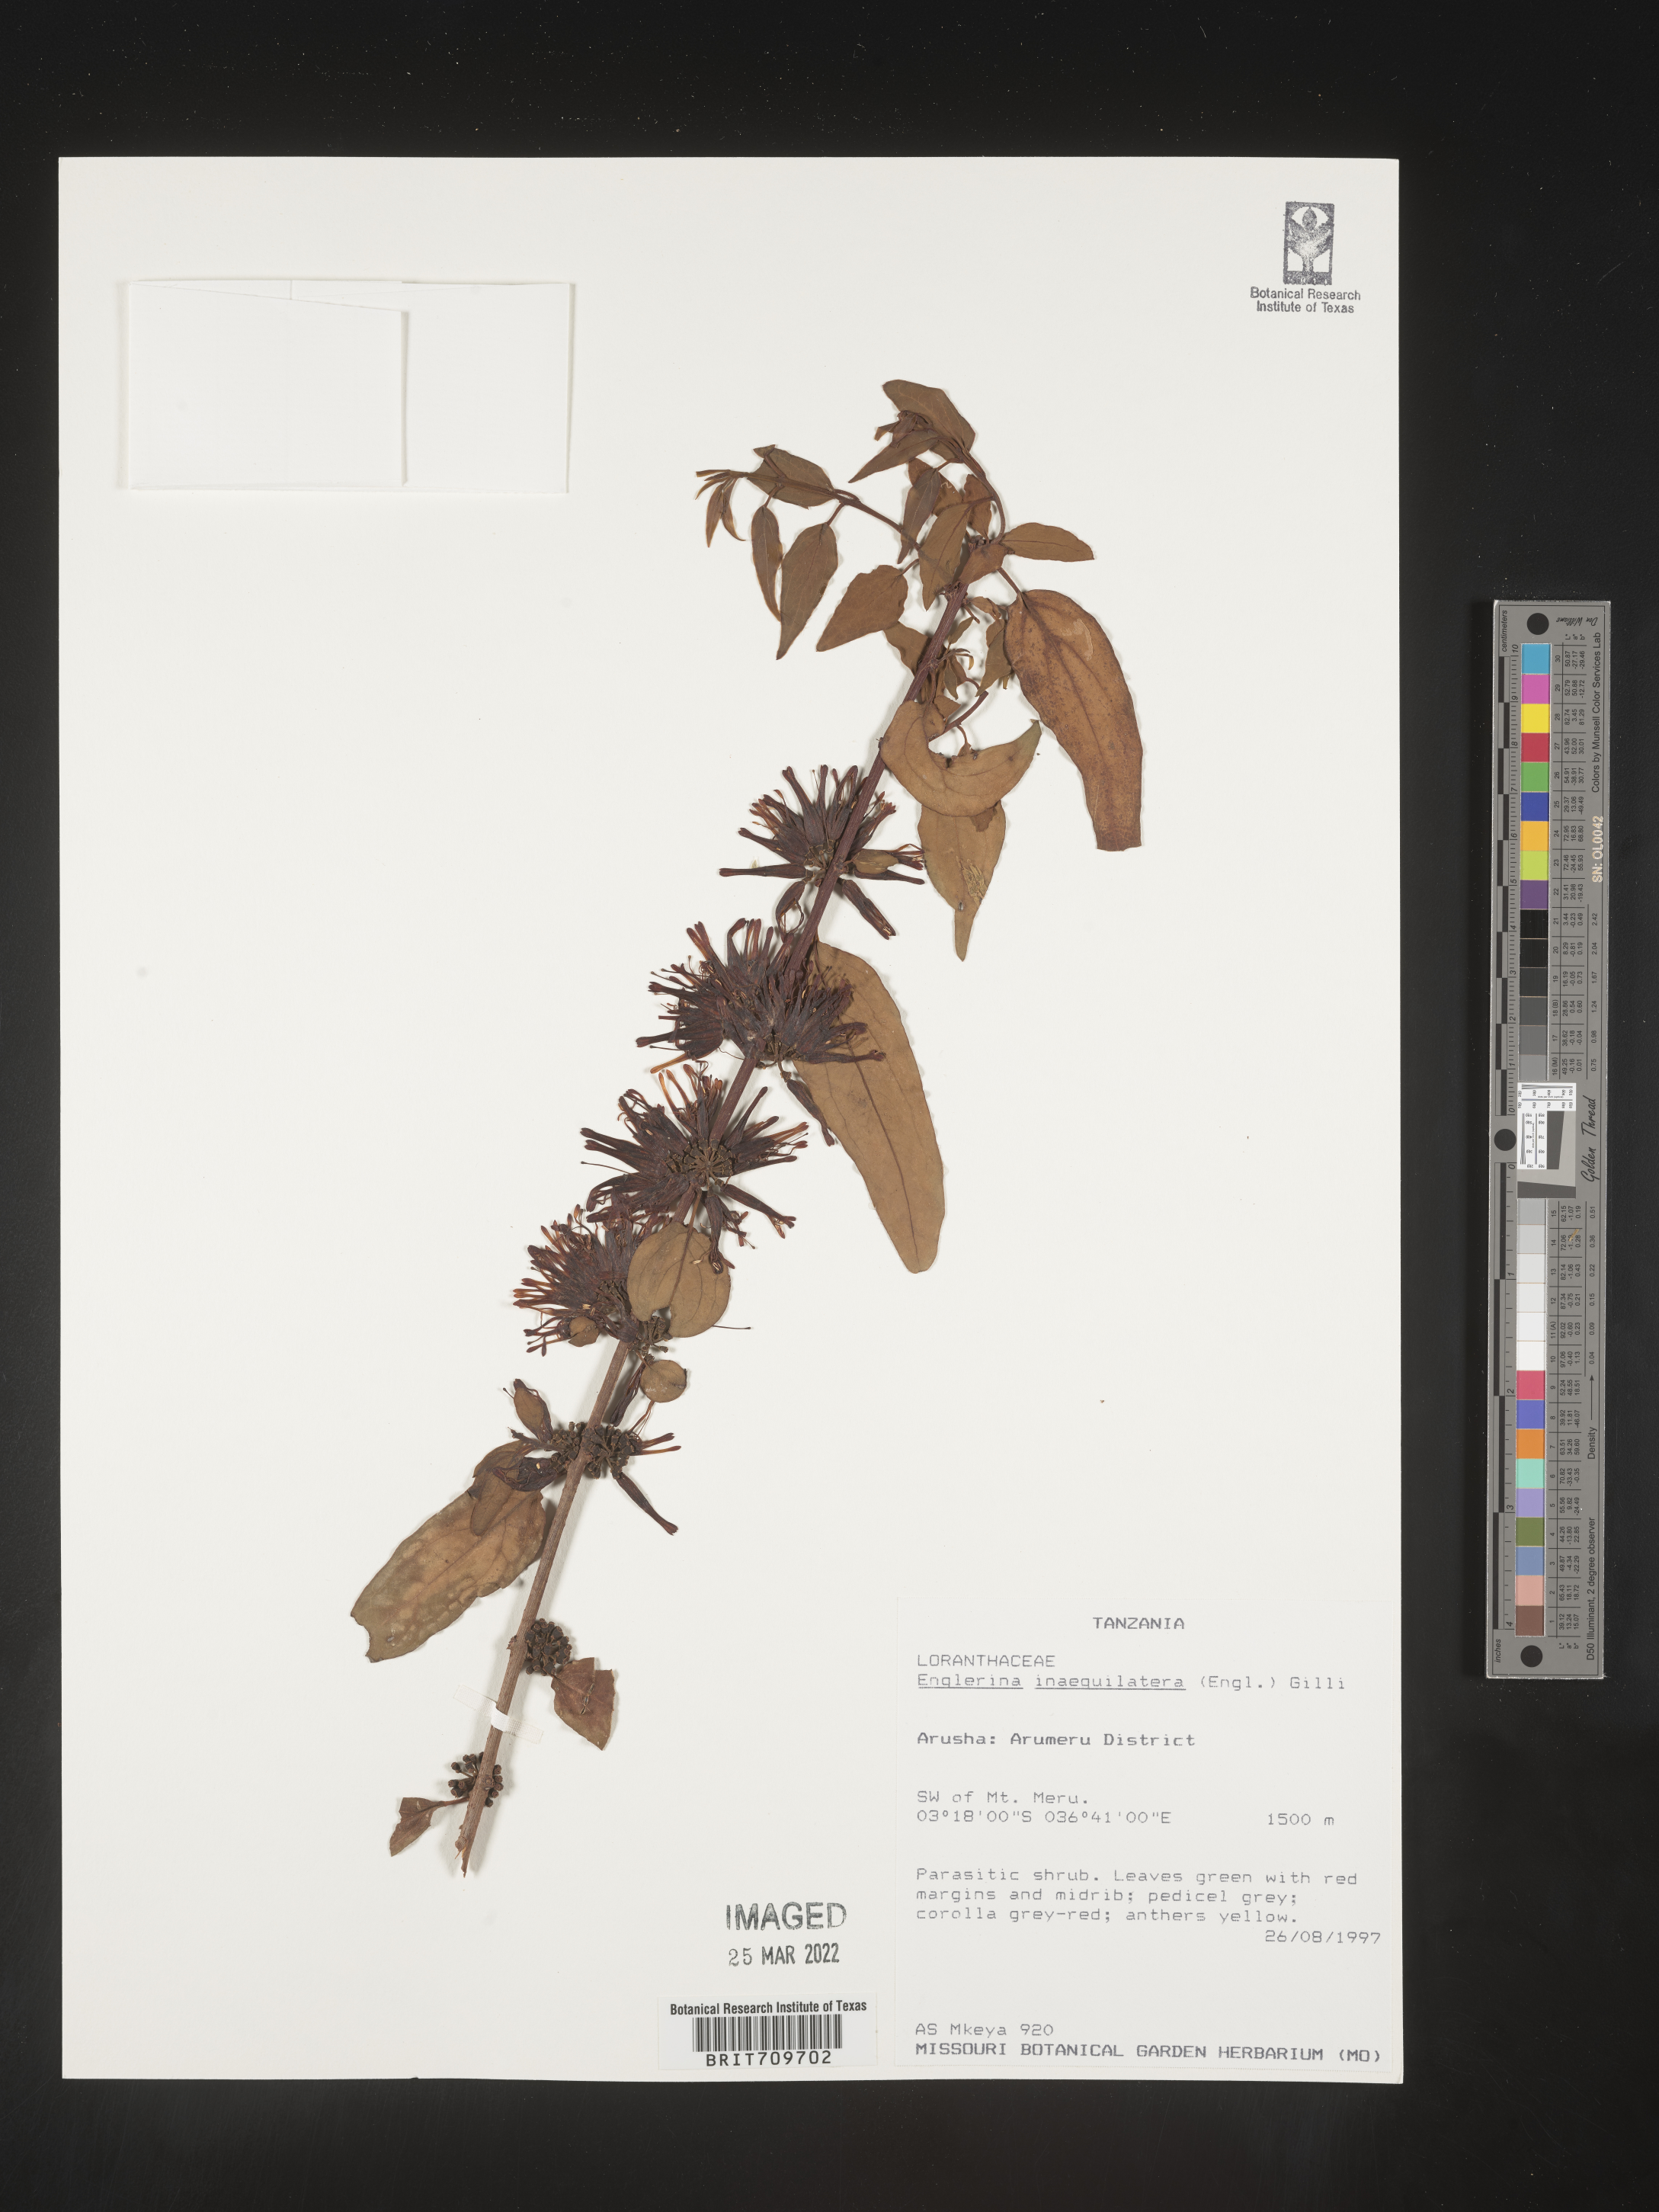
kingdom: Plantae
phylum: Tracheophyta
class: Magnoliopsida
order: Santalales
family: Loranthaceae
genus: Englerina
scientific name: Englerina
